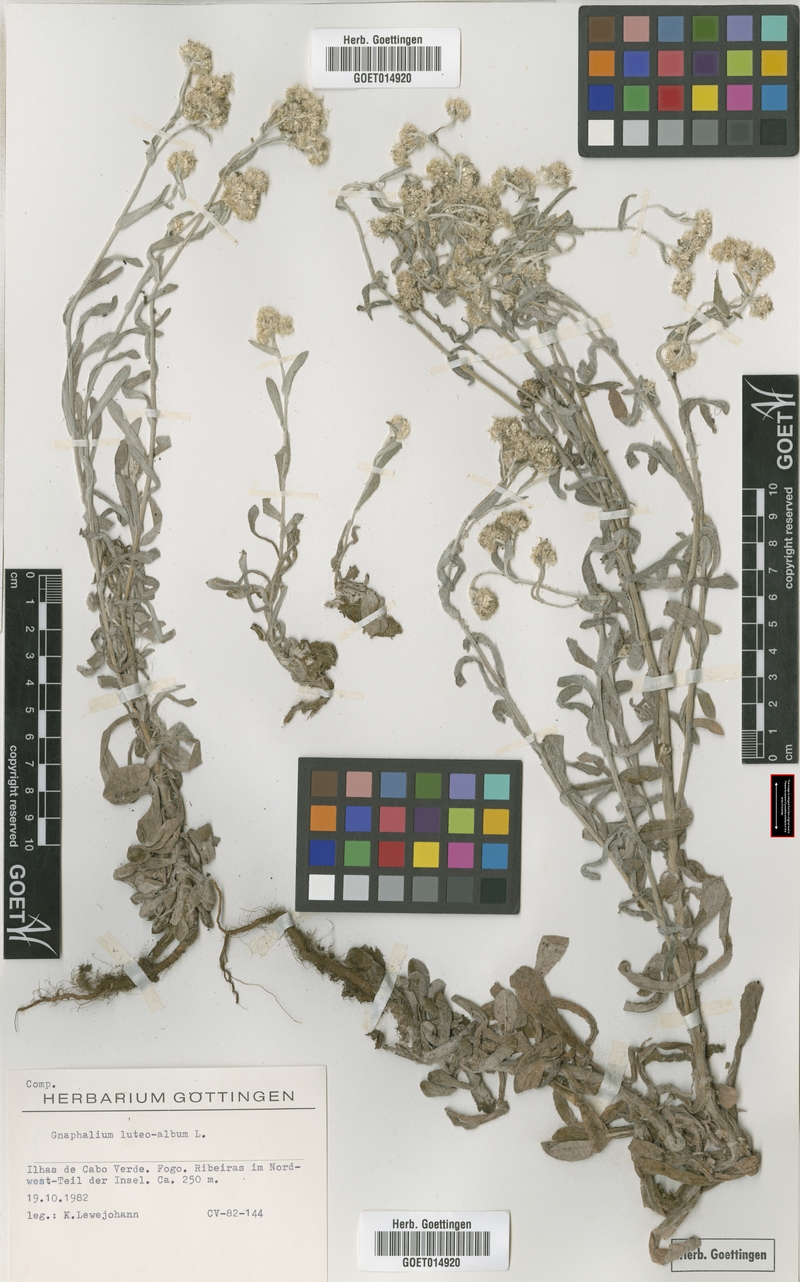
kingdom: Plantae
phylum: Tracheophyta
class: Magnoliopsida
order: Asterales
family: Asteraceae
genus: Helichrysum
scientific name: Helichrysum luteoalbum
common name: Daisy
